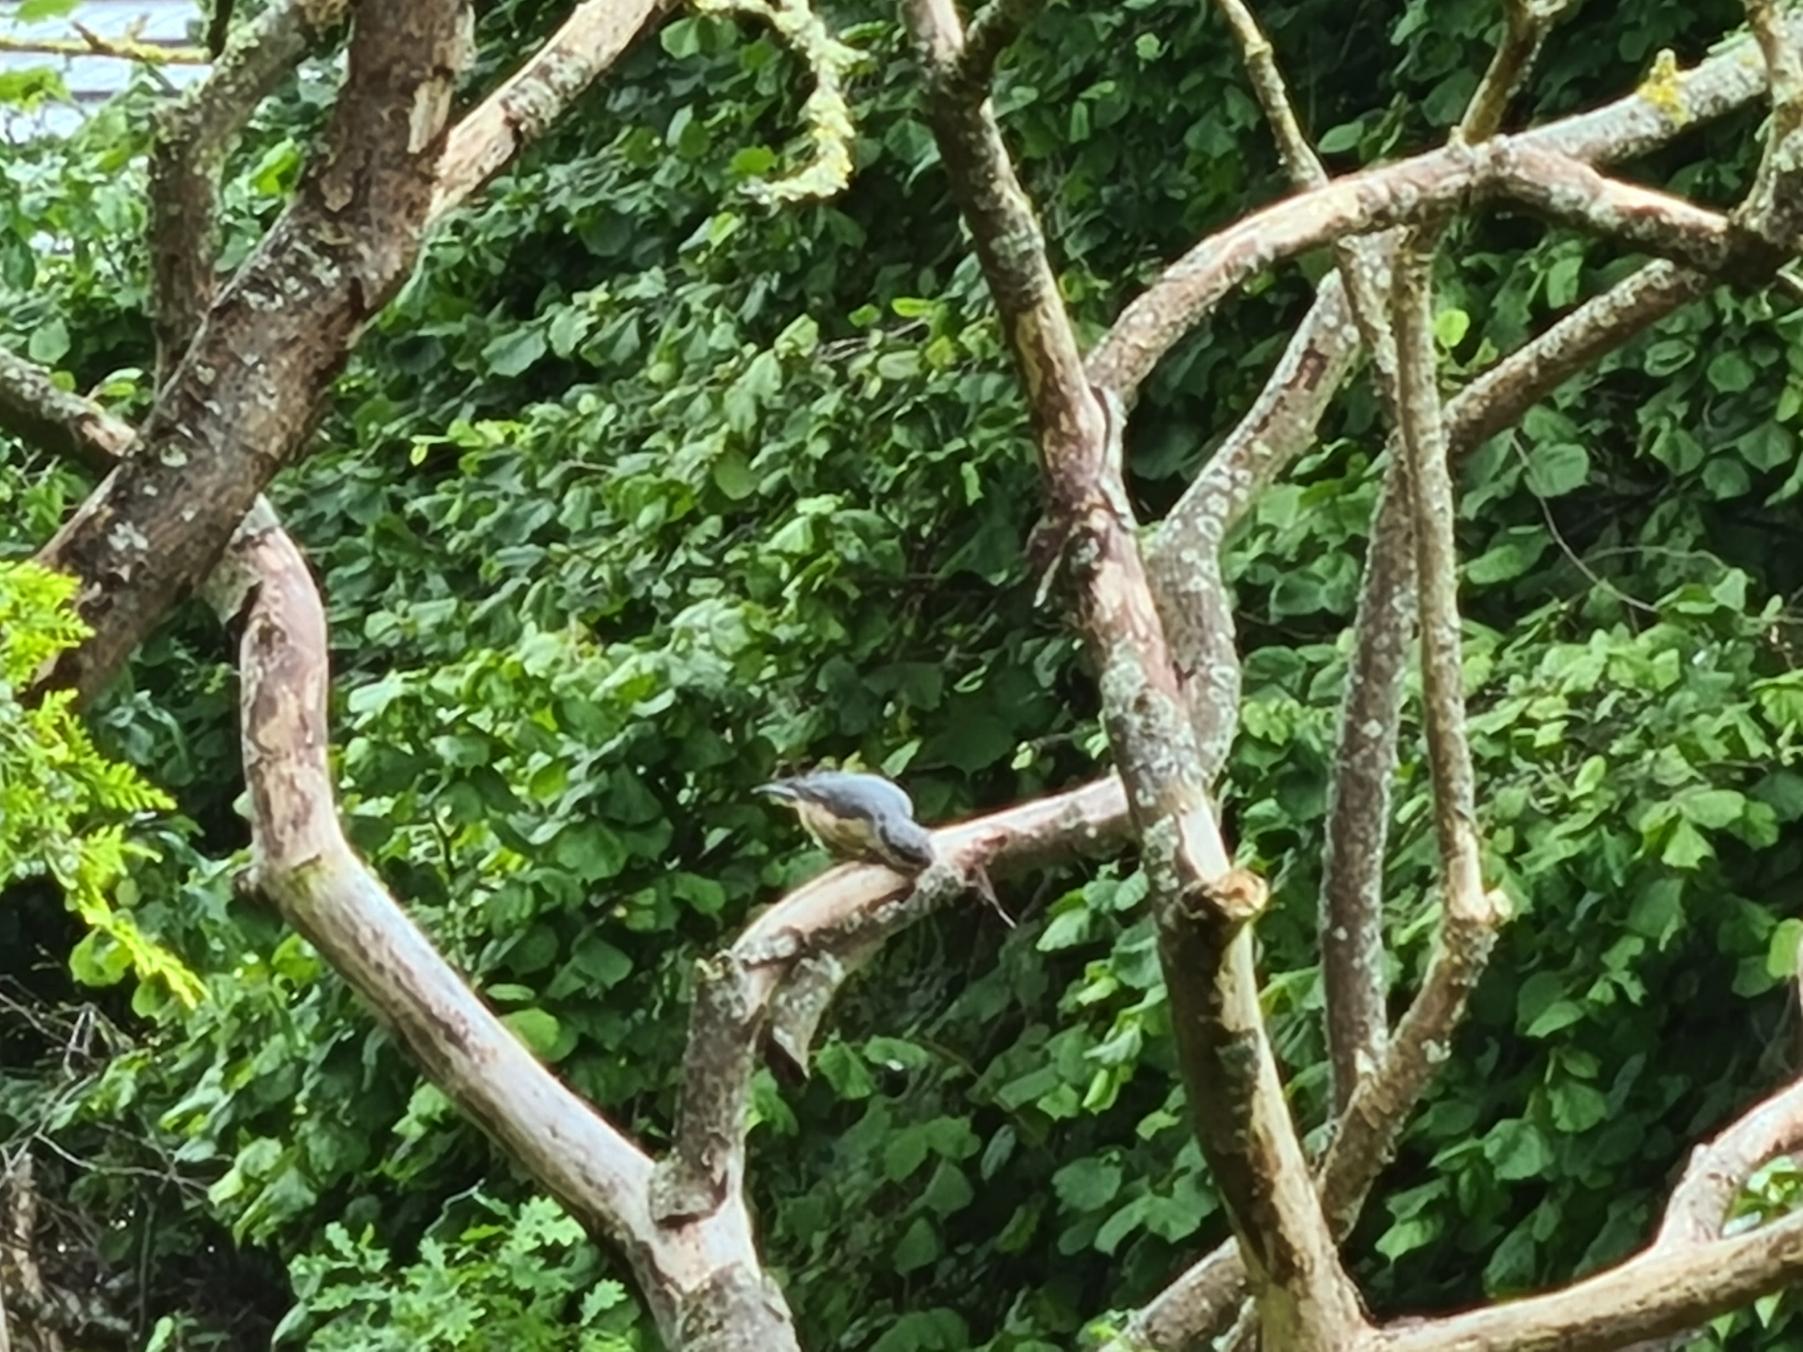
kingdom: Animalia
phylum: Chordata
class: Aves
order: Passeriformes
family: Sittidae
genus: Sitta
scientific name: Sitta europaea
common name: Spætmejse
